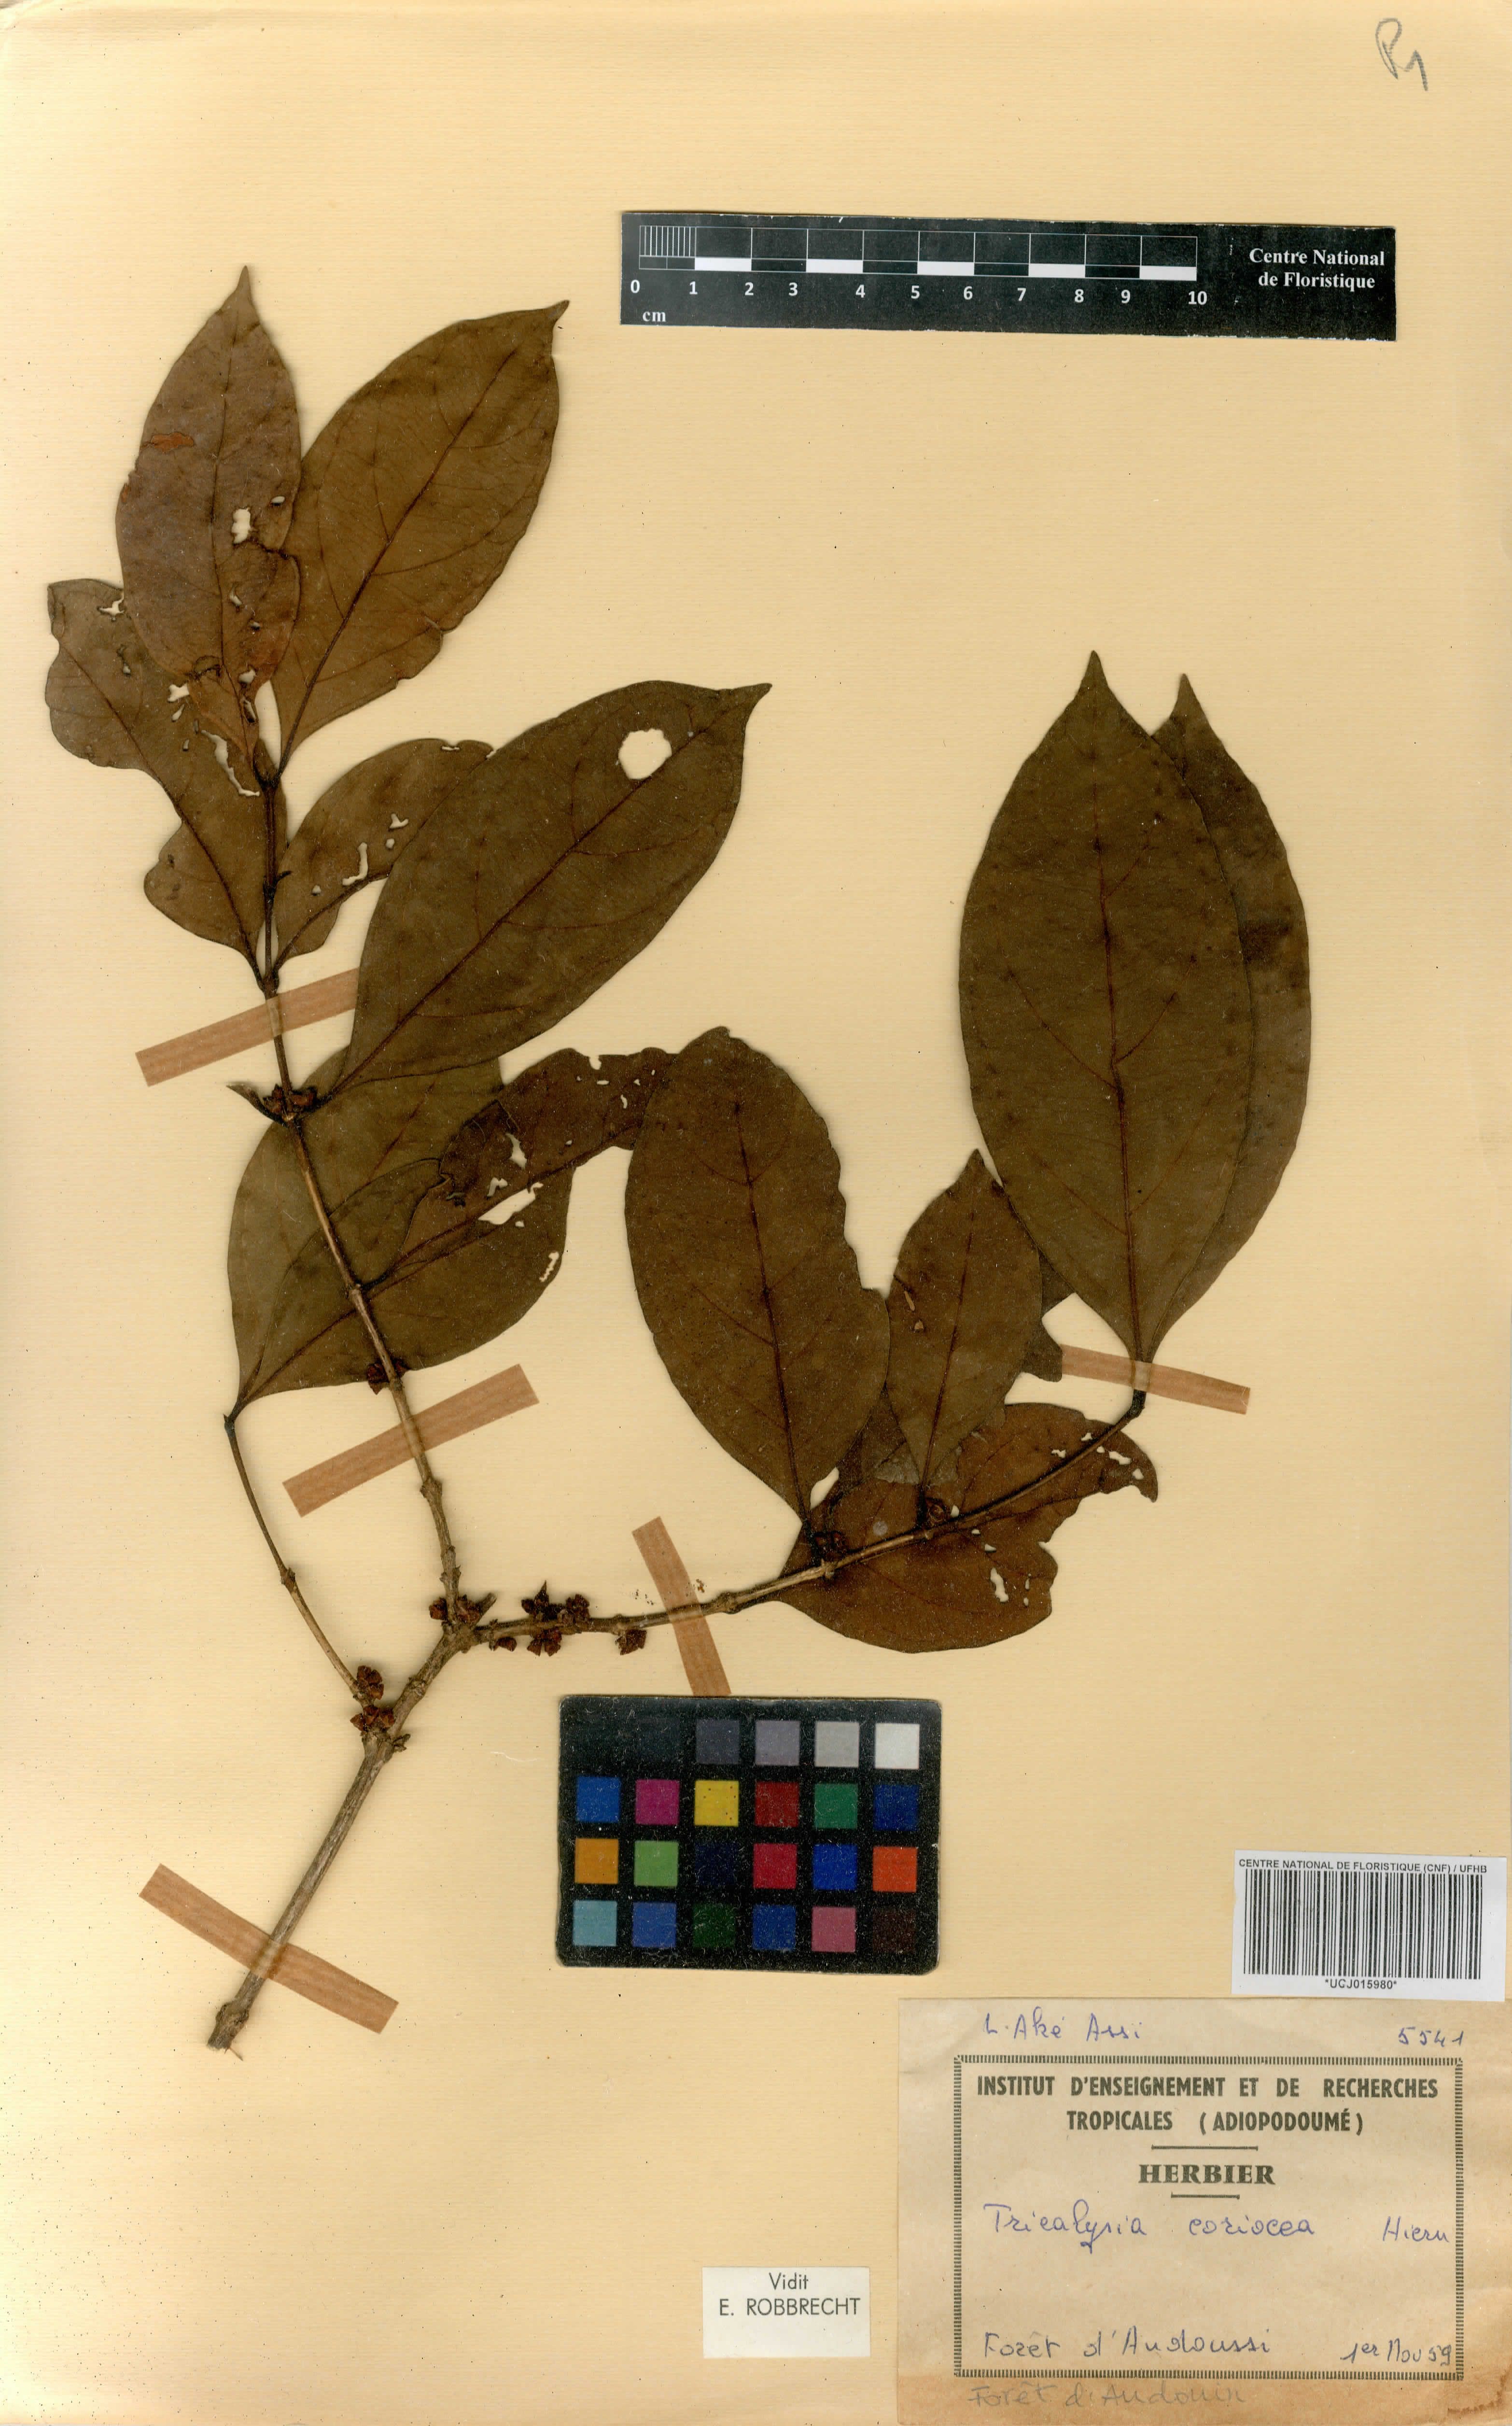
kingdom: Plantae
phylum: Tracheophyta
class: Magnoliopsida
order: Gentianales
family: Rubiaceae
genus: Sericanthe
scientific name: Sericanthe chevalieri
